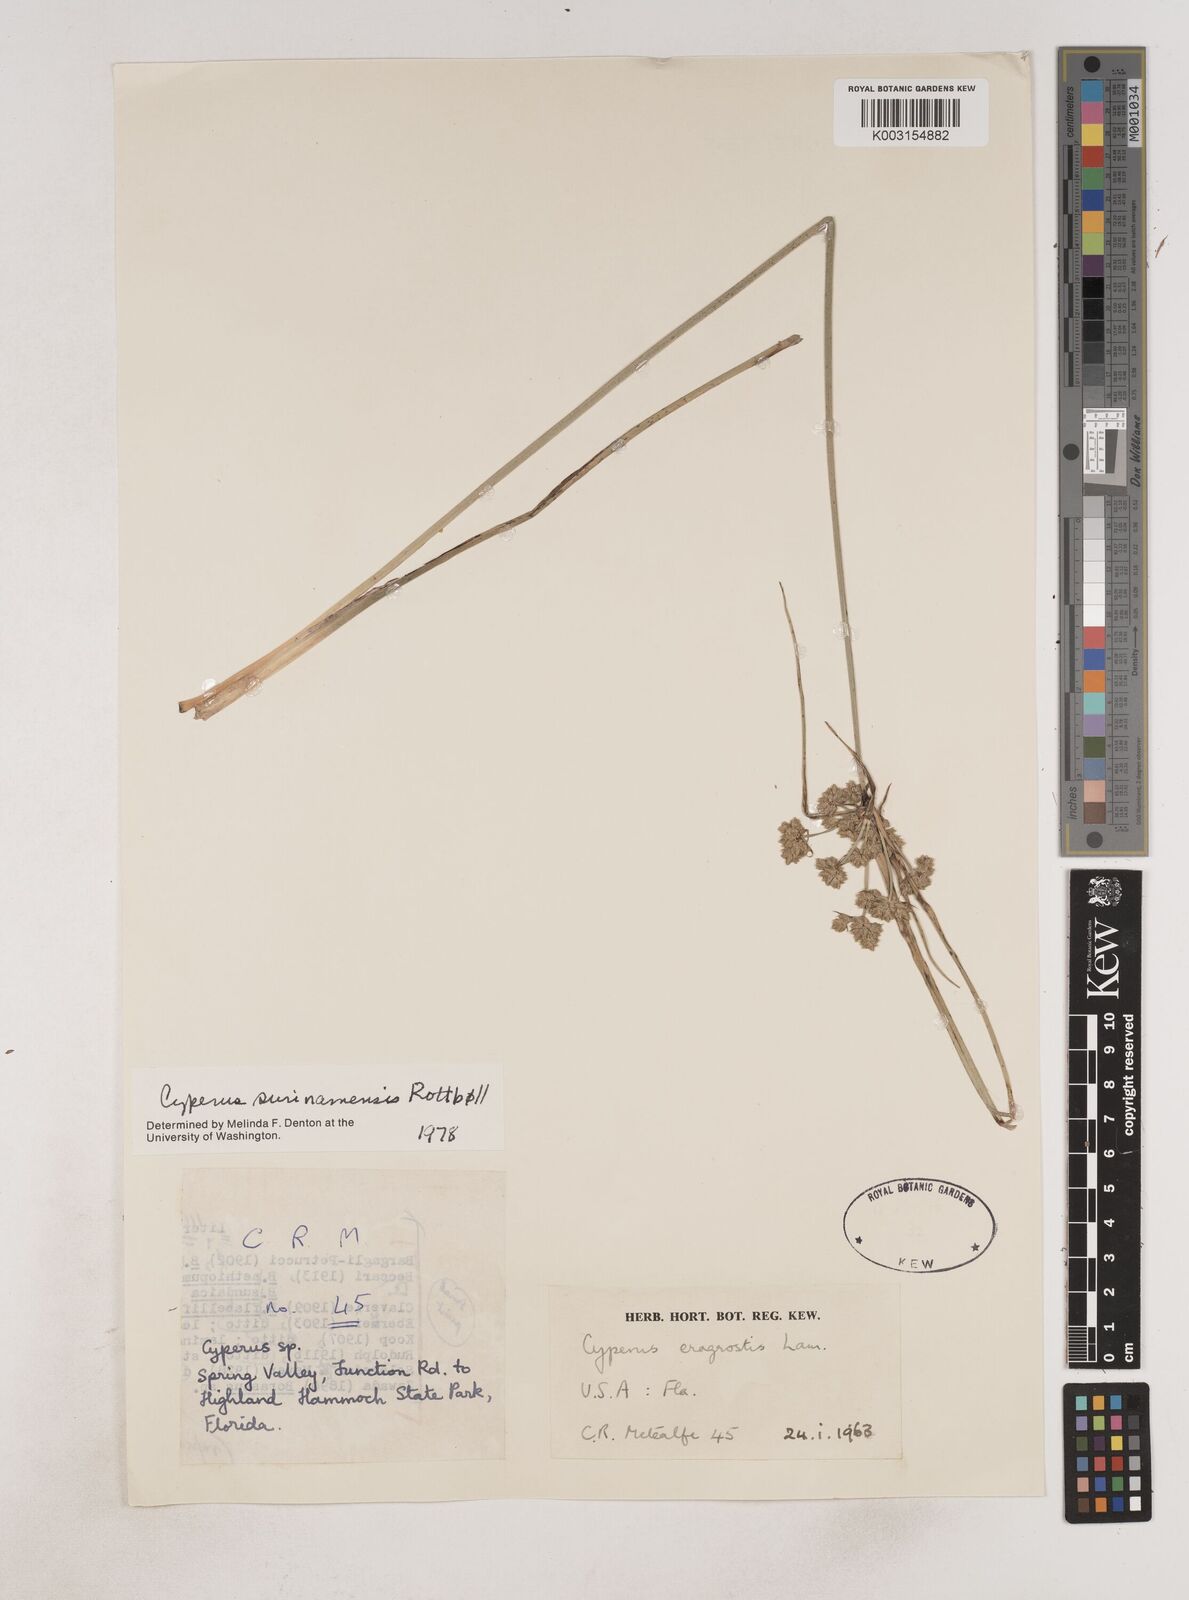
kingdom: Plantae
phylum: Tracheophyta
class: Liliopsida
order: Poales
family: Cyperaceae
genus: Cyperus
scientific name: Cyperus surinamensis
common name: Tropical flat sedge
